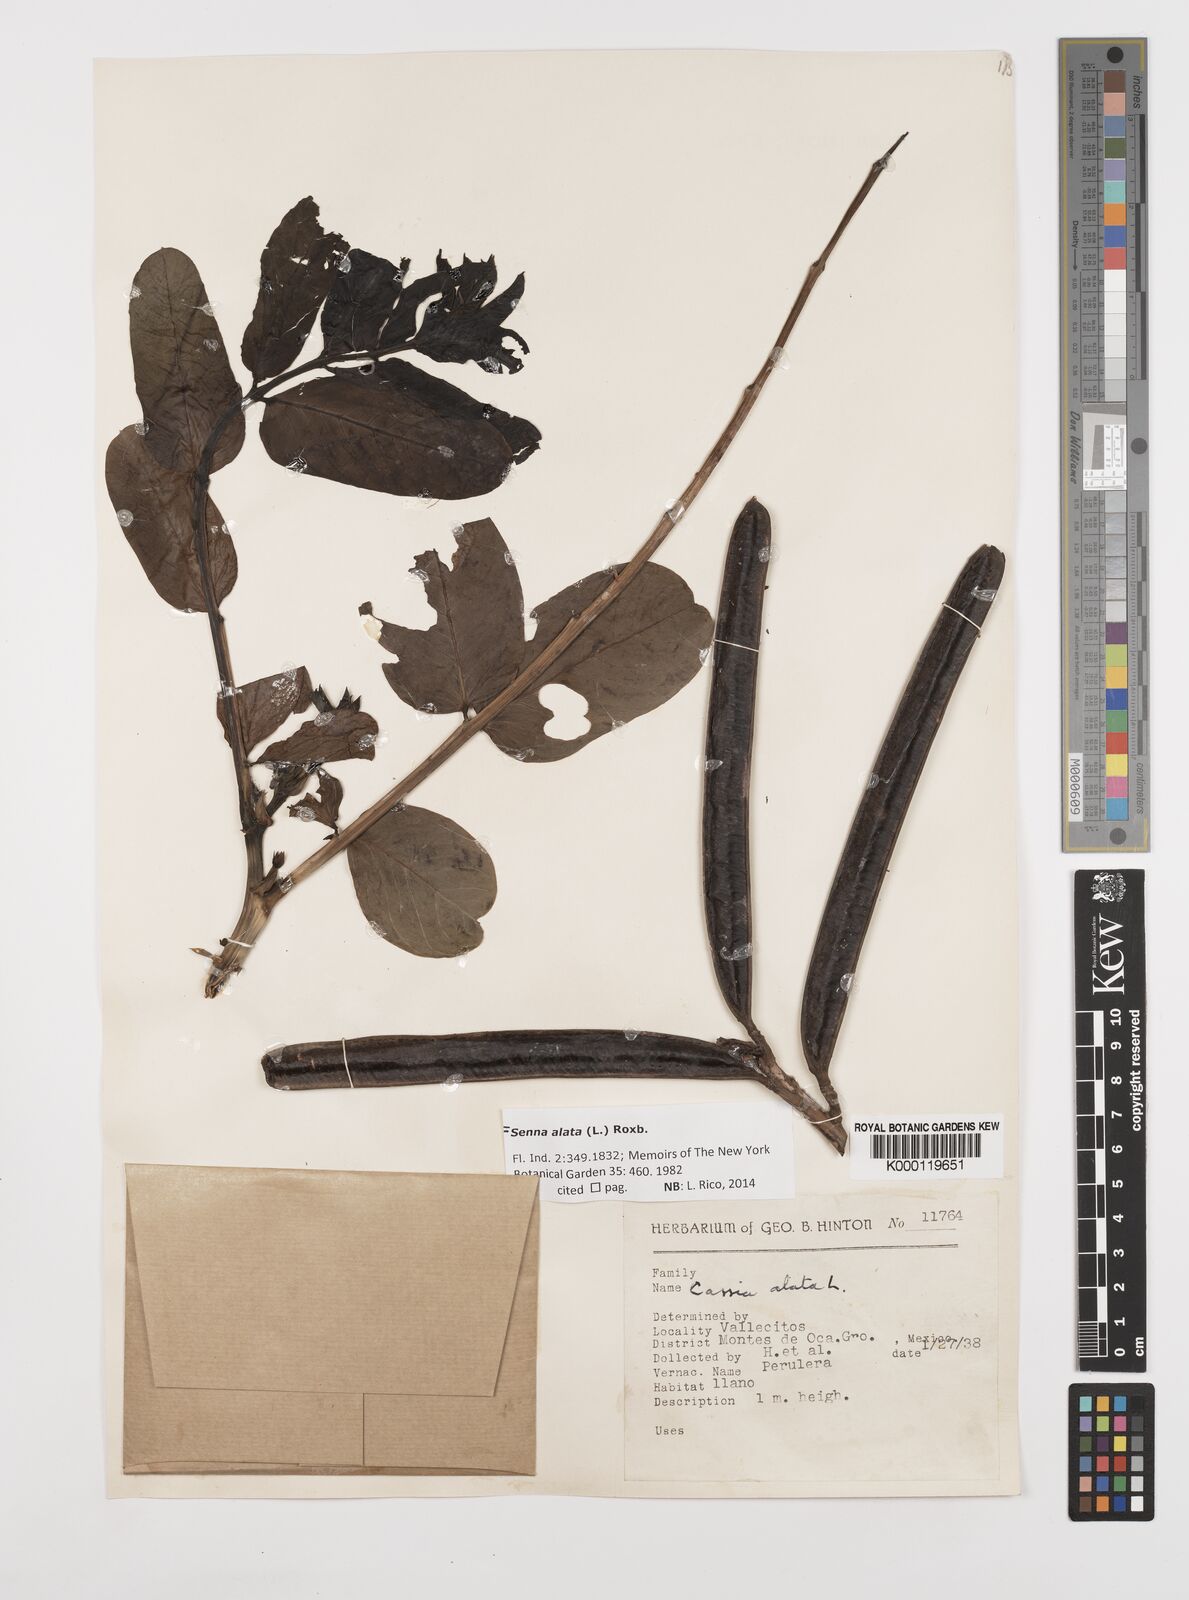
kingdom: Plantae
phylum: Tracheophyta
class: Magnoliopsida
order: Fabales
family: Fabaceae
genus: Senna
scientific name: Senna alata
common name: Emperor's candlesticks
